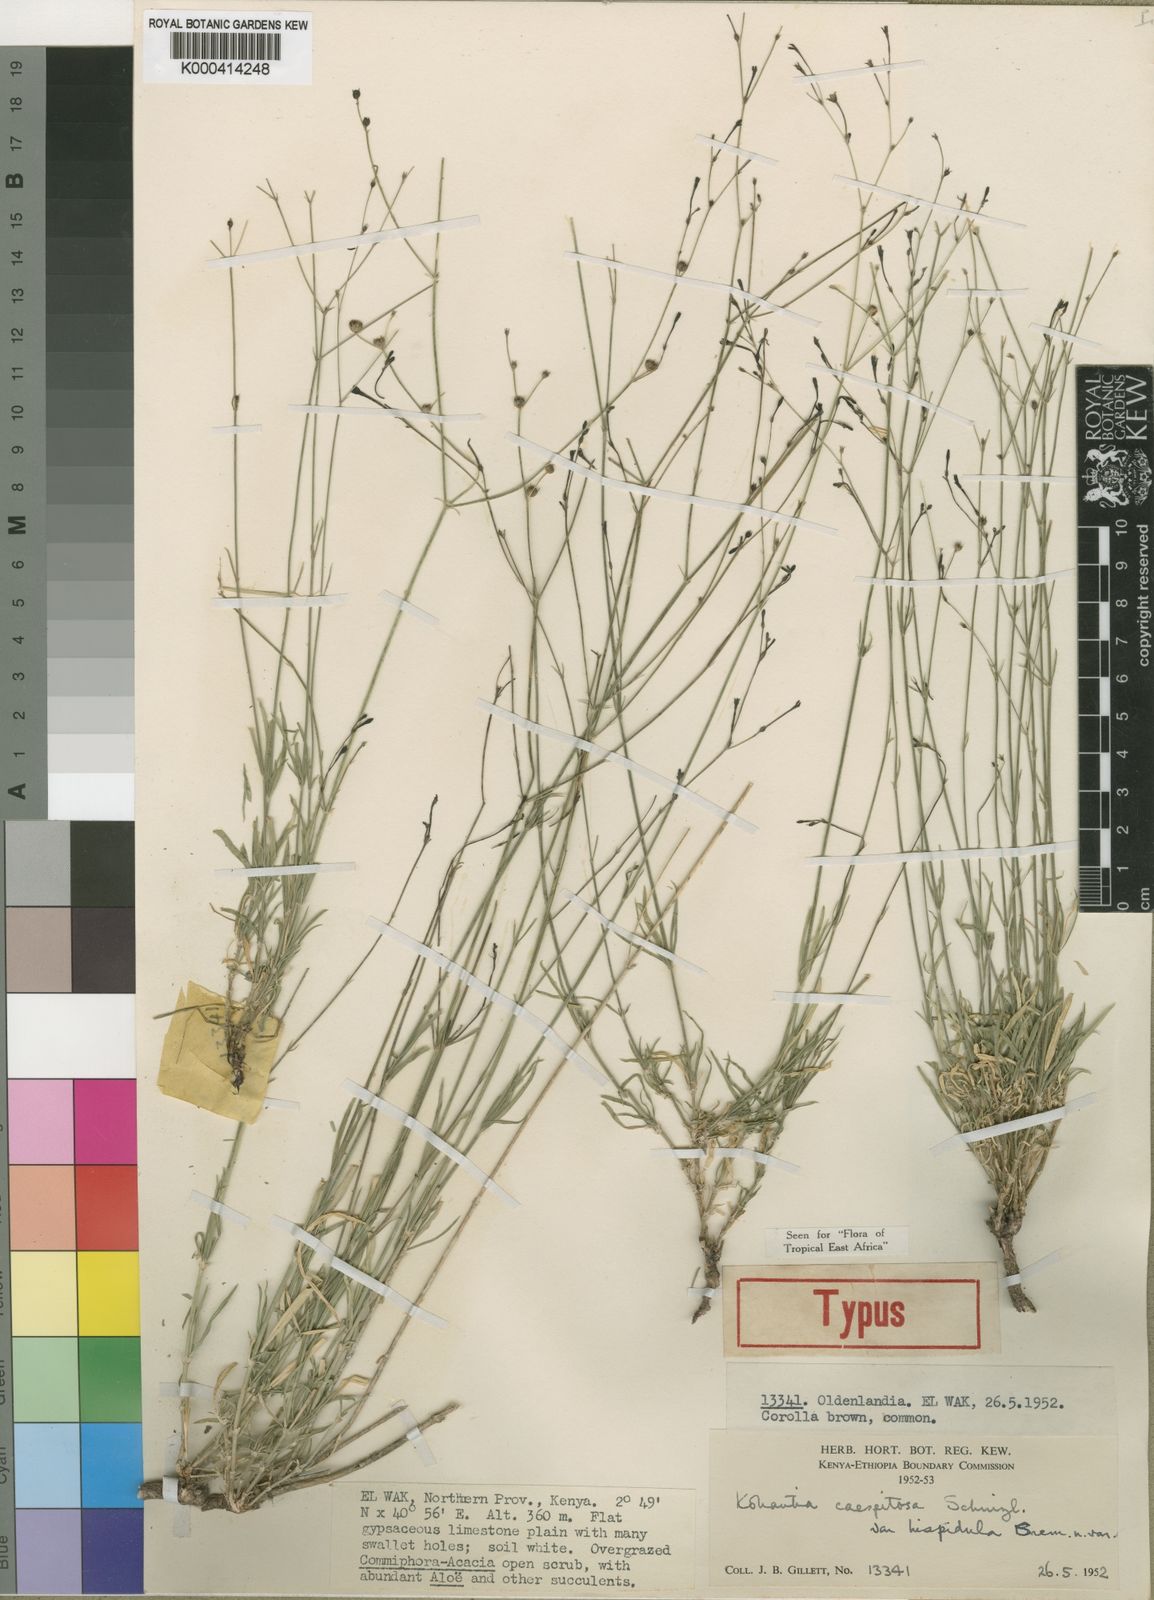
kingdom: Plantae
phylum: Tracheophyta
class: Magnoliopsida
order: Gentianales
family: Rubiaceae
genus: Kohautia
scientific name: Kohautia caespitosa
